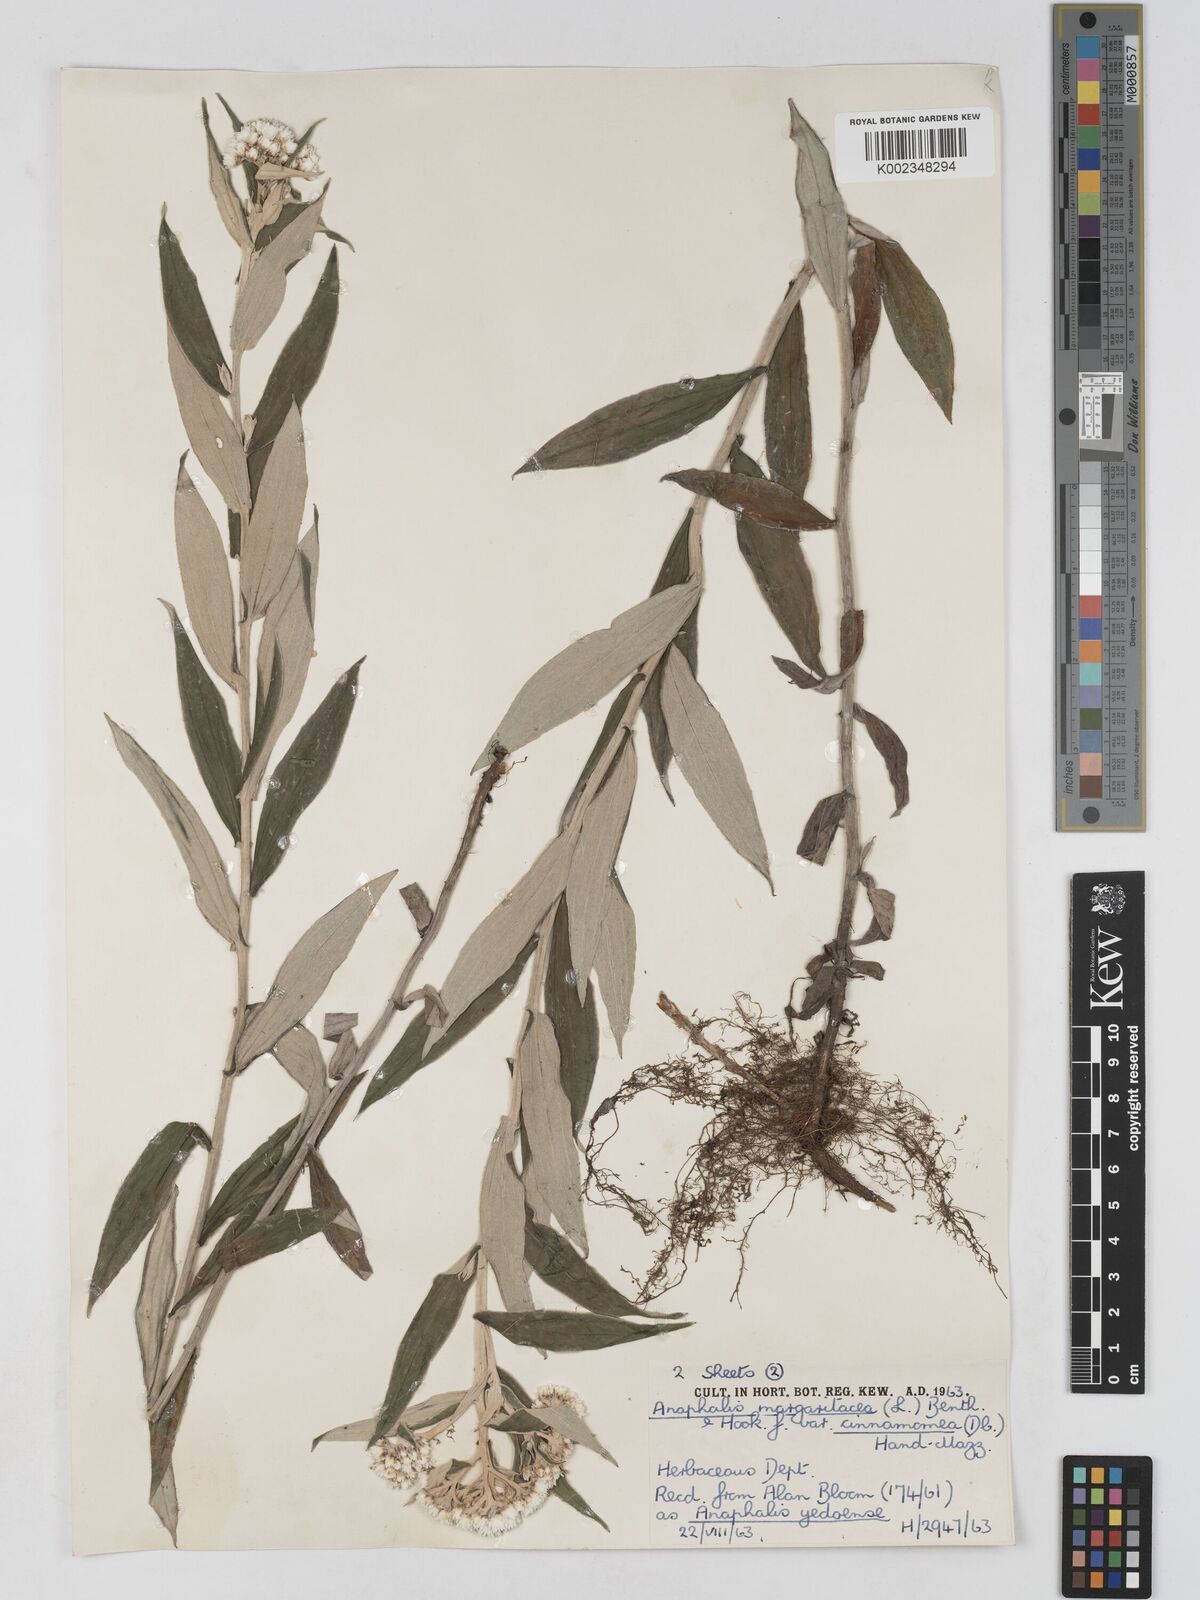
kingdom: Plantae
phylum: Tracheophyta
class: Magnoliopsida
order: Asterales
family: Asteraceae
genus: Anaphalis
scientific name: Anaphalis margaritacea
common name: Pearly everlasting
